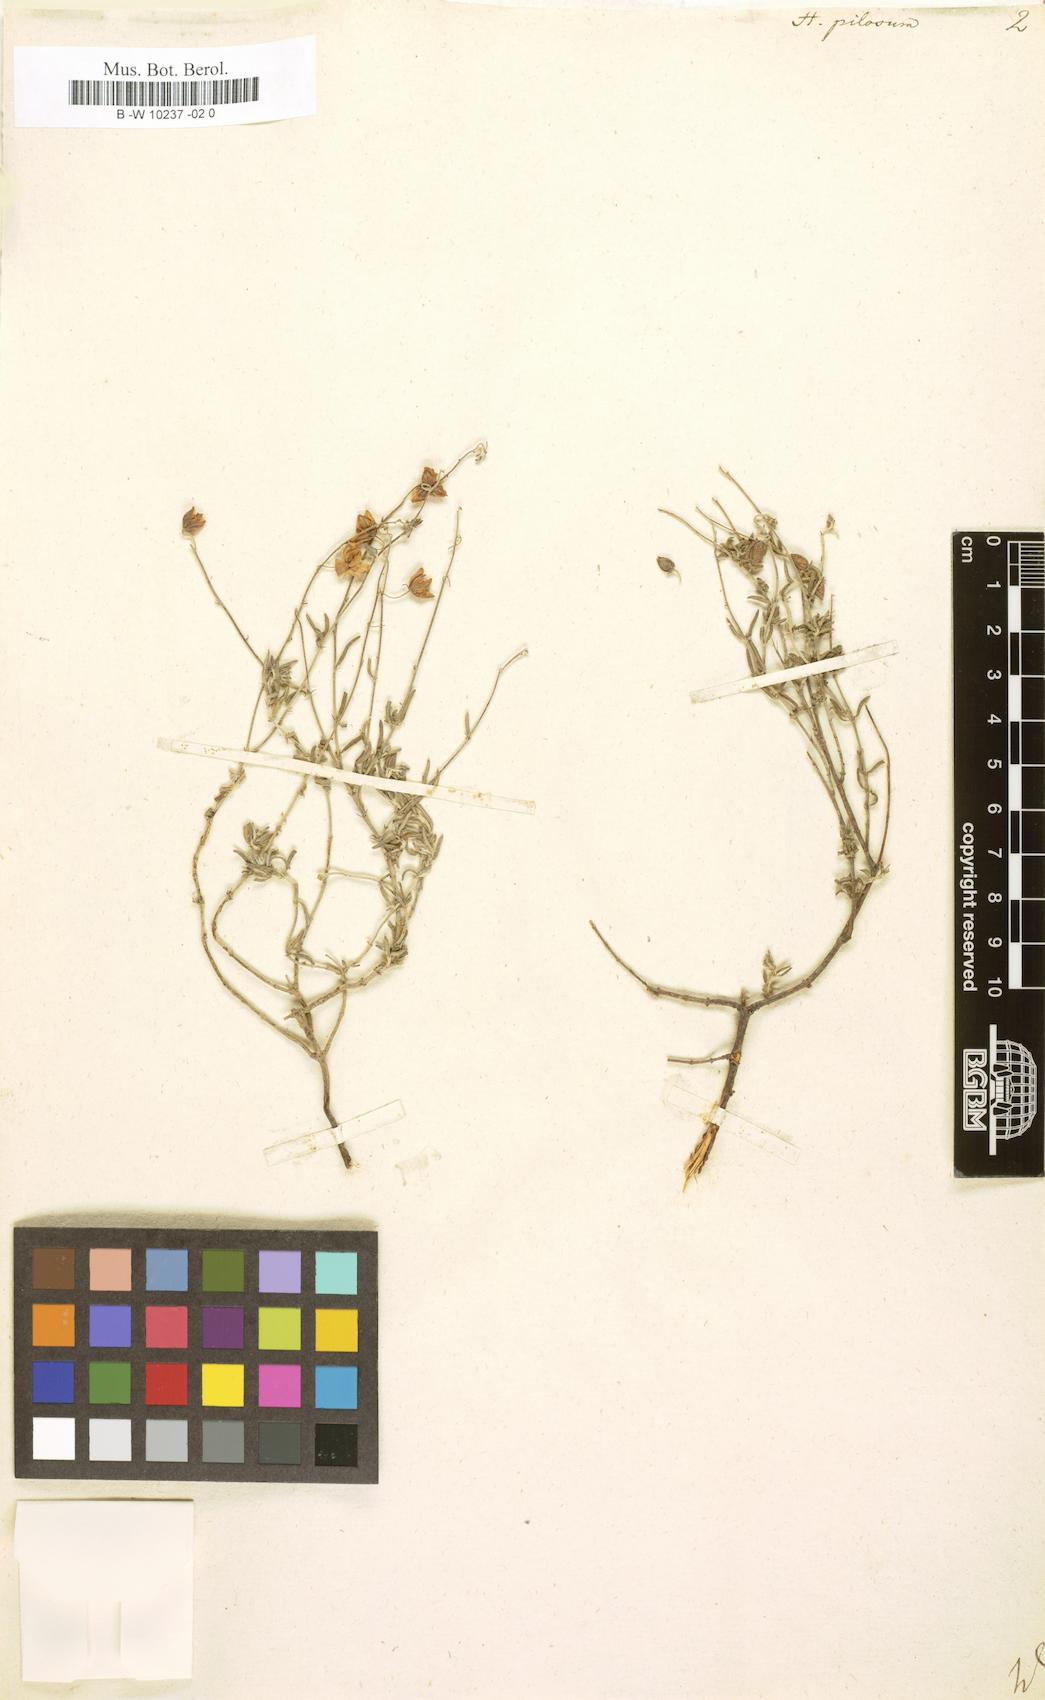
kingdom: Plantae
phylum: Tracheophyta
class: Magnoliopsida
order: Malvales
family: Cistaceae
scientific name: Cistaceae
